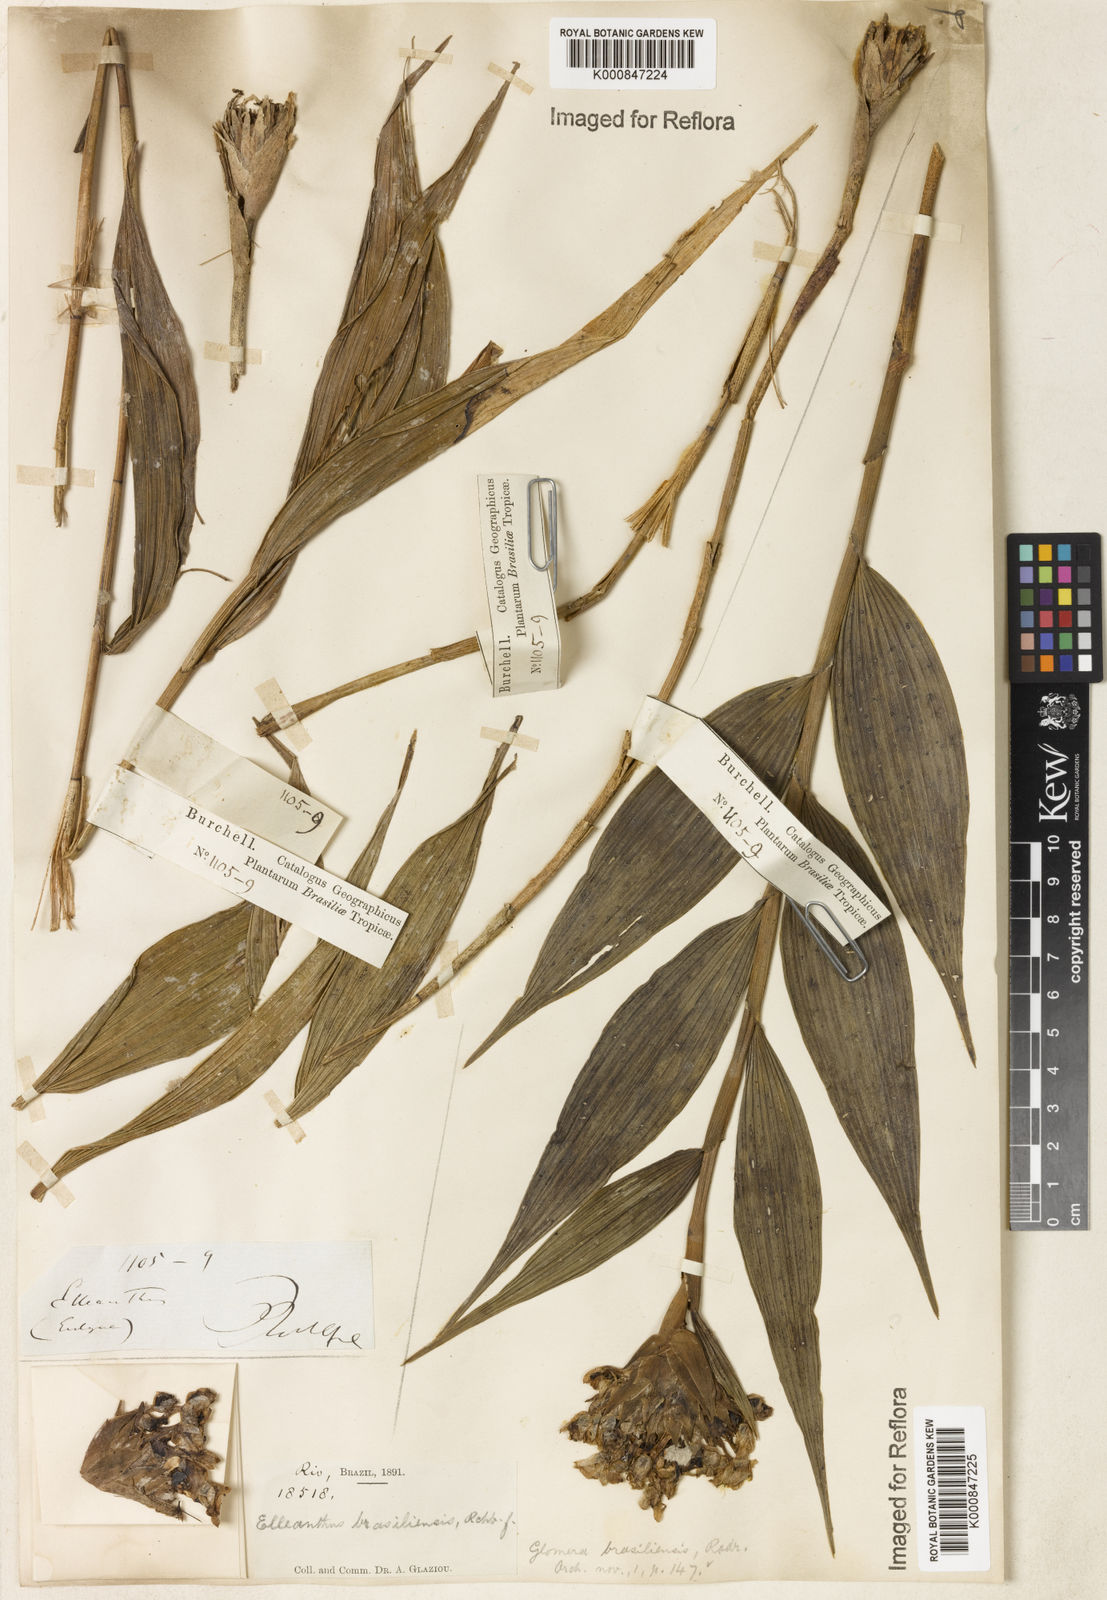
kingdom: Plantae
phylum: Tracheophyta
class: Liliopsida
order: Asparagales
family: Orchidaceae
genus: Elleanthus
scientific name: Elleanthus brasiliensis
